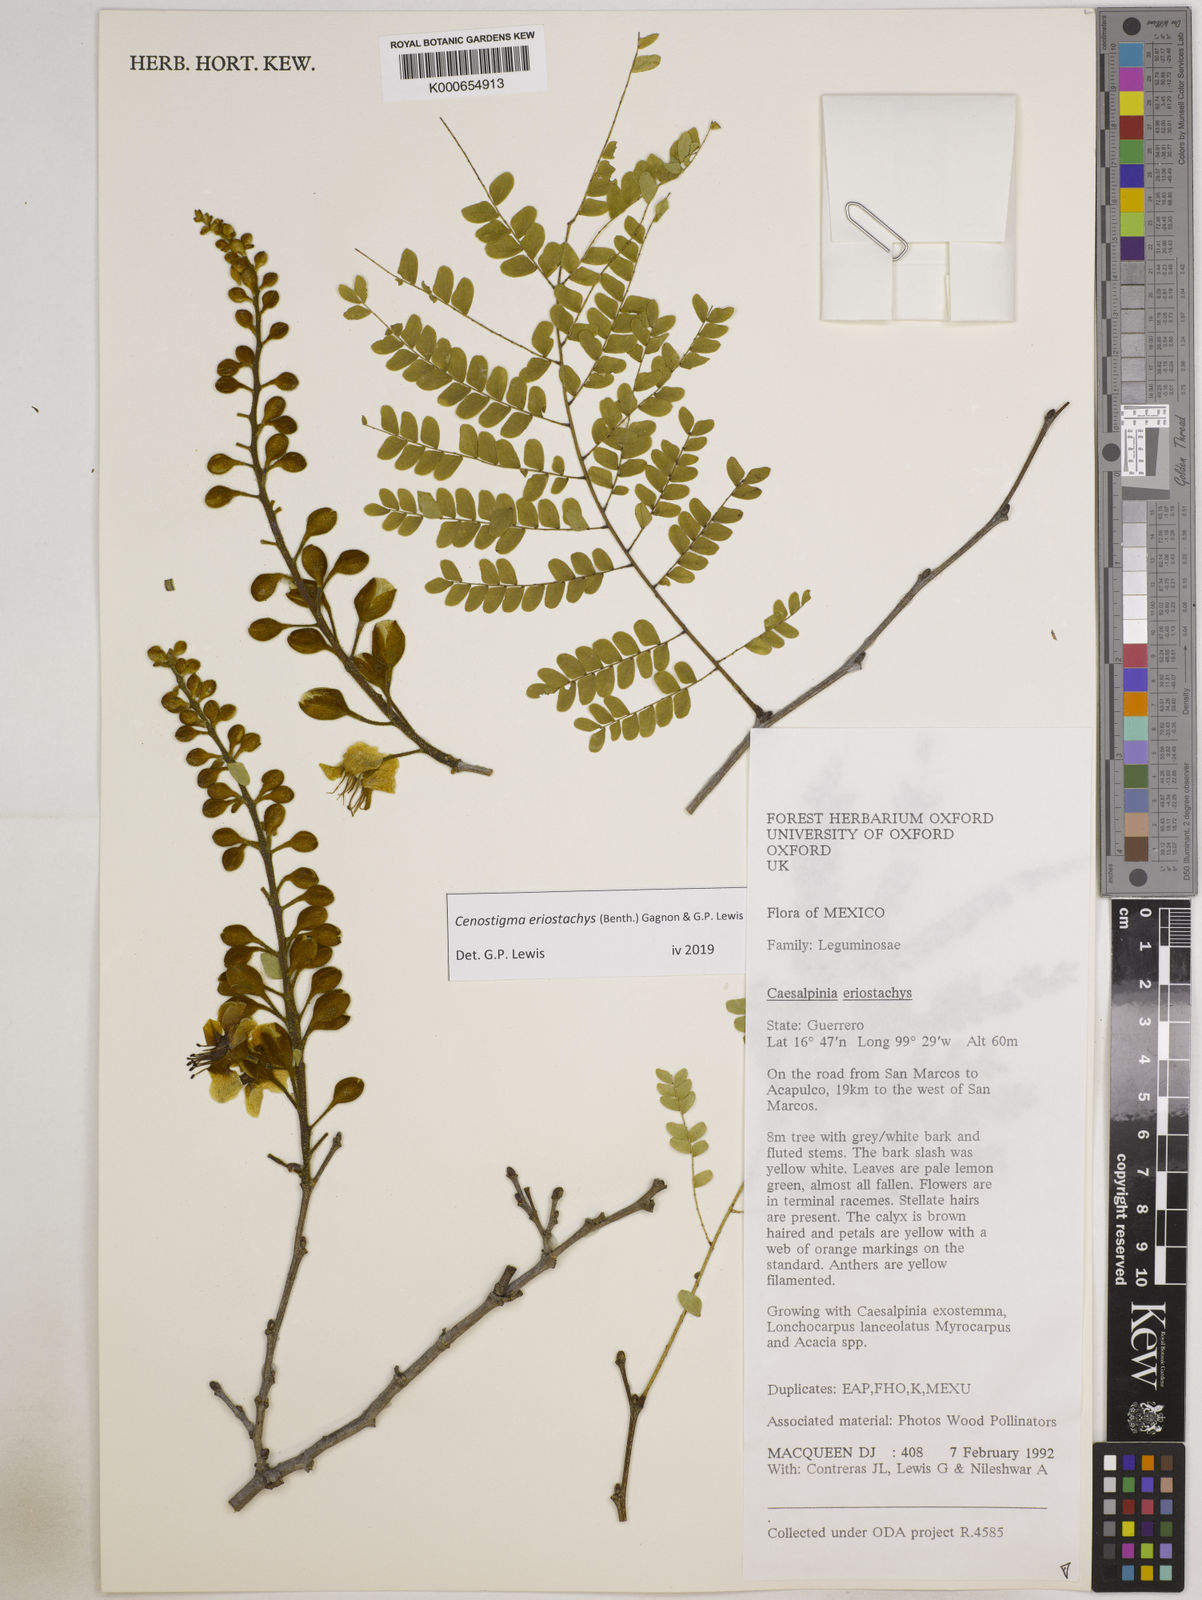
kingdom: Plantae
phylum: Tracheophyta
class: Magnoliopsida
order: Fabales
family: Fabaceae
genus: Cenostigma
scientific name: Cenostigma eriostachys
